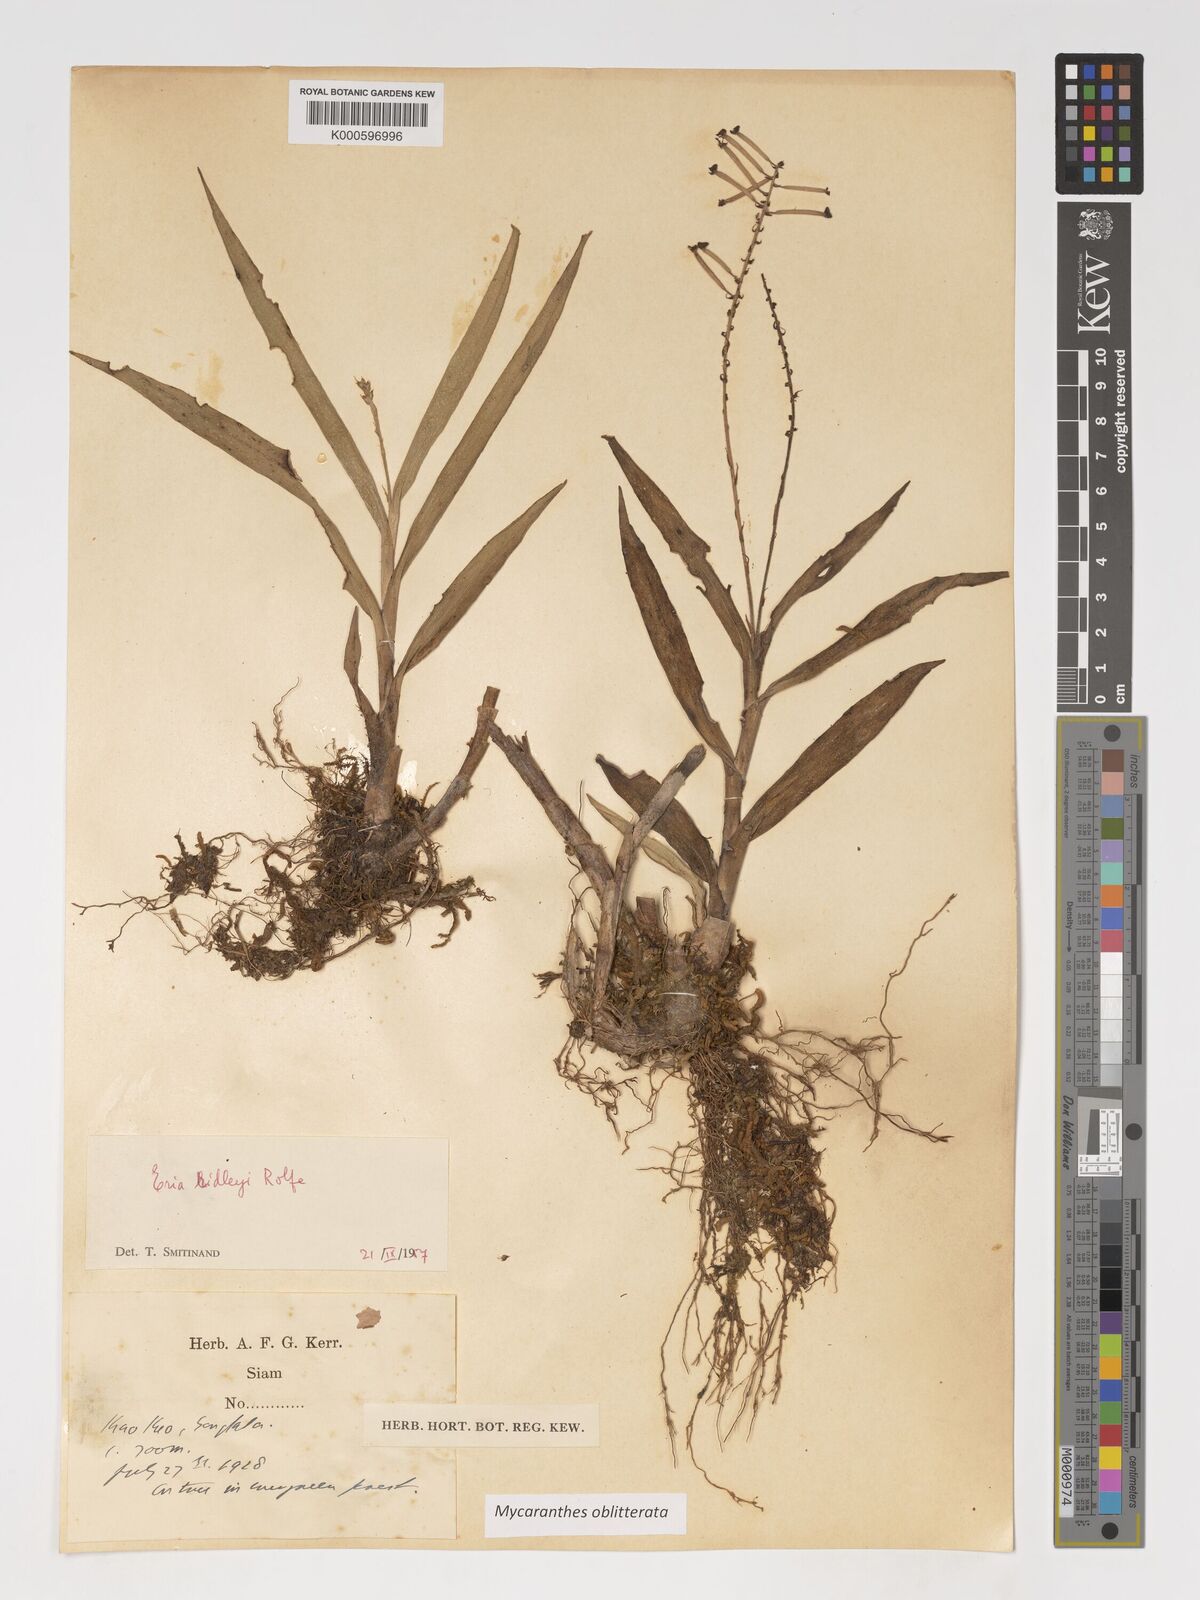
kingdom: Plantae
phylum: Tracheophyta
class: Liliopsida
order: Asparagales
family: Orchidaceae
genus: Mycaranthes
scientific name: Mycaranthes oblitterata
